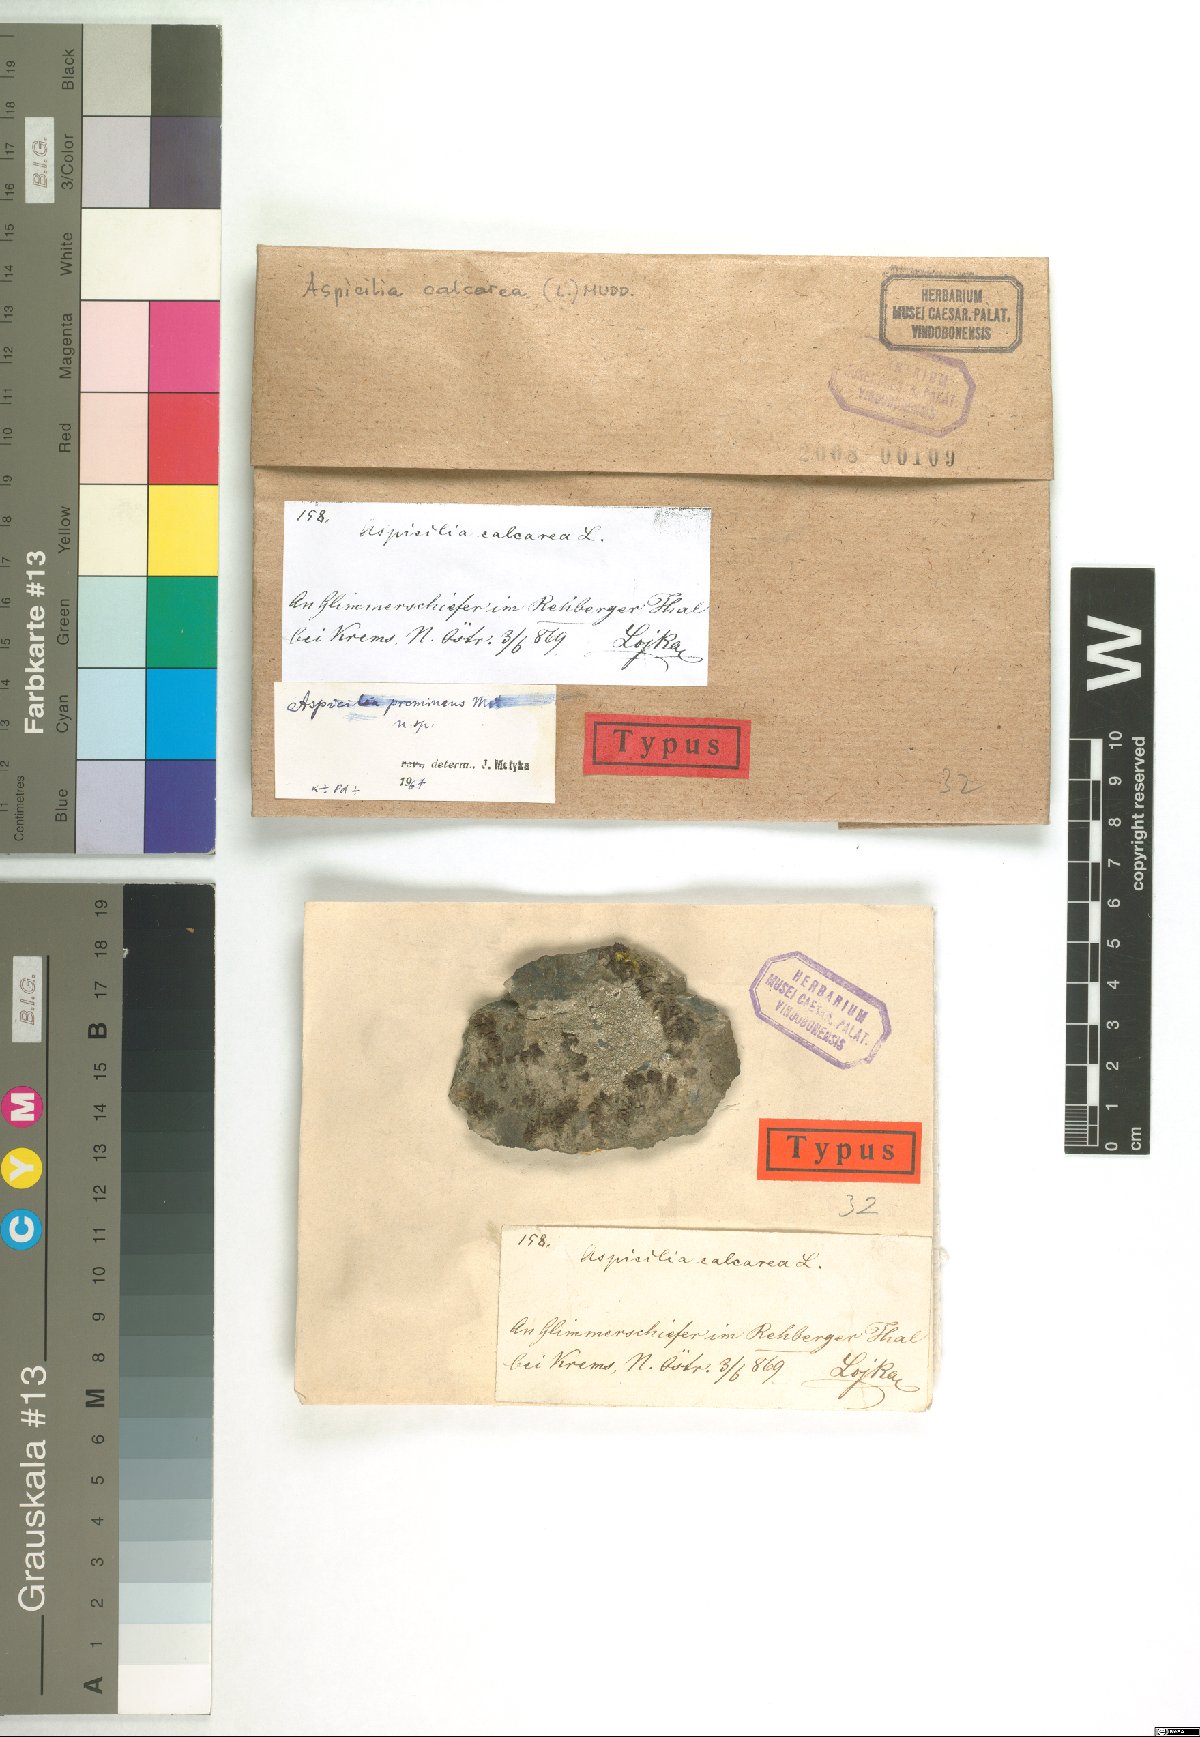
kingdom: Fungi
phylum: Ascomycota
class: Lecanoromycetes
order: Hymeneliales
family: Hymeneliaceae
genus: Aspicilia
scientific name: Aspicilia
